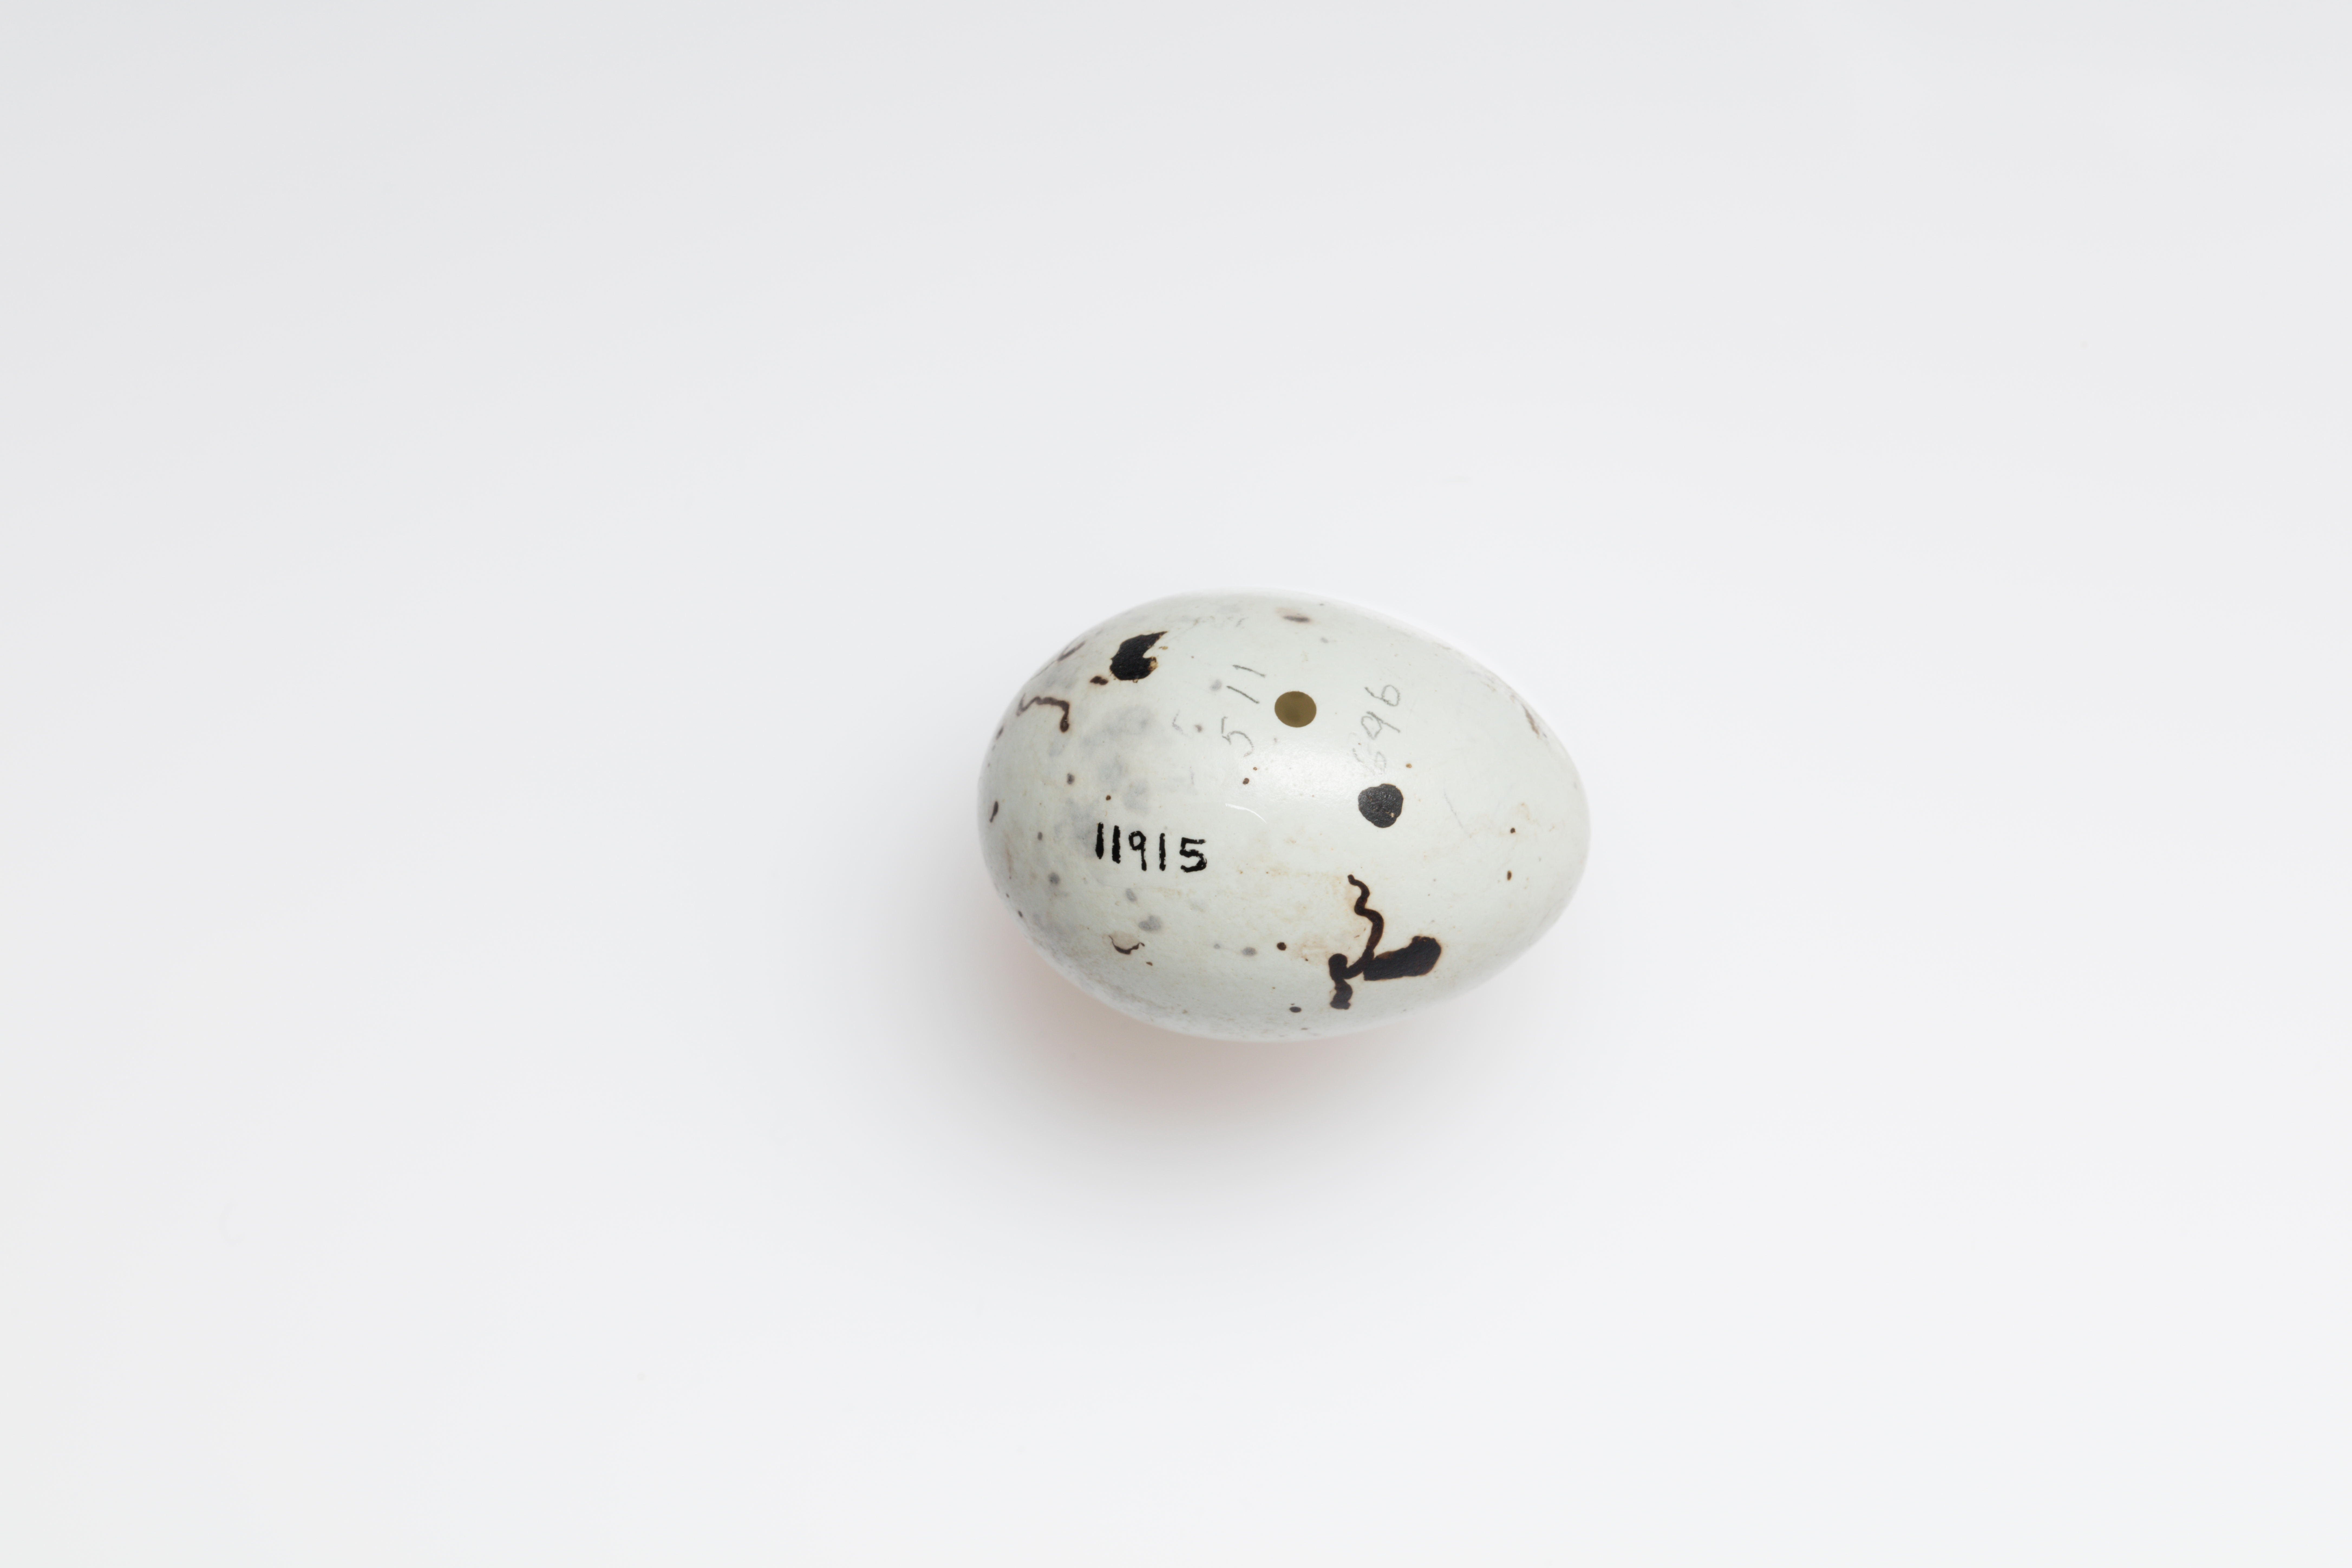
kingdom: Animalia
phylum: Chordata
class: Aves
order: Passeriformes
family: Sturnidae
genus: Aplonis
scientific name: Aplonis metallica
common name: Metallic starling
